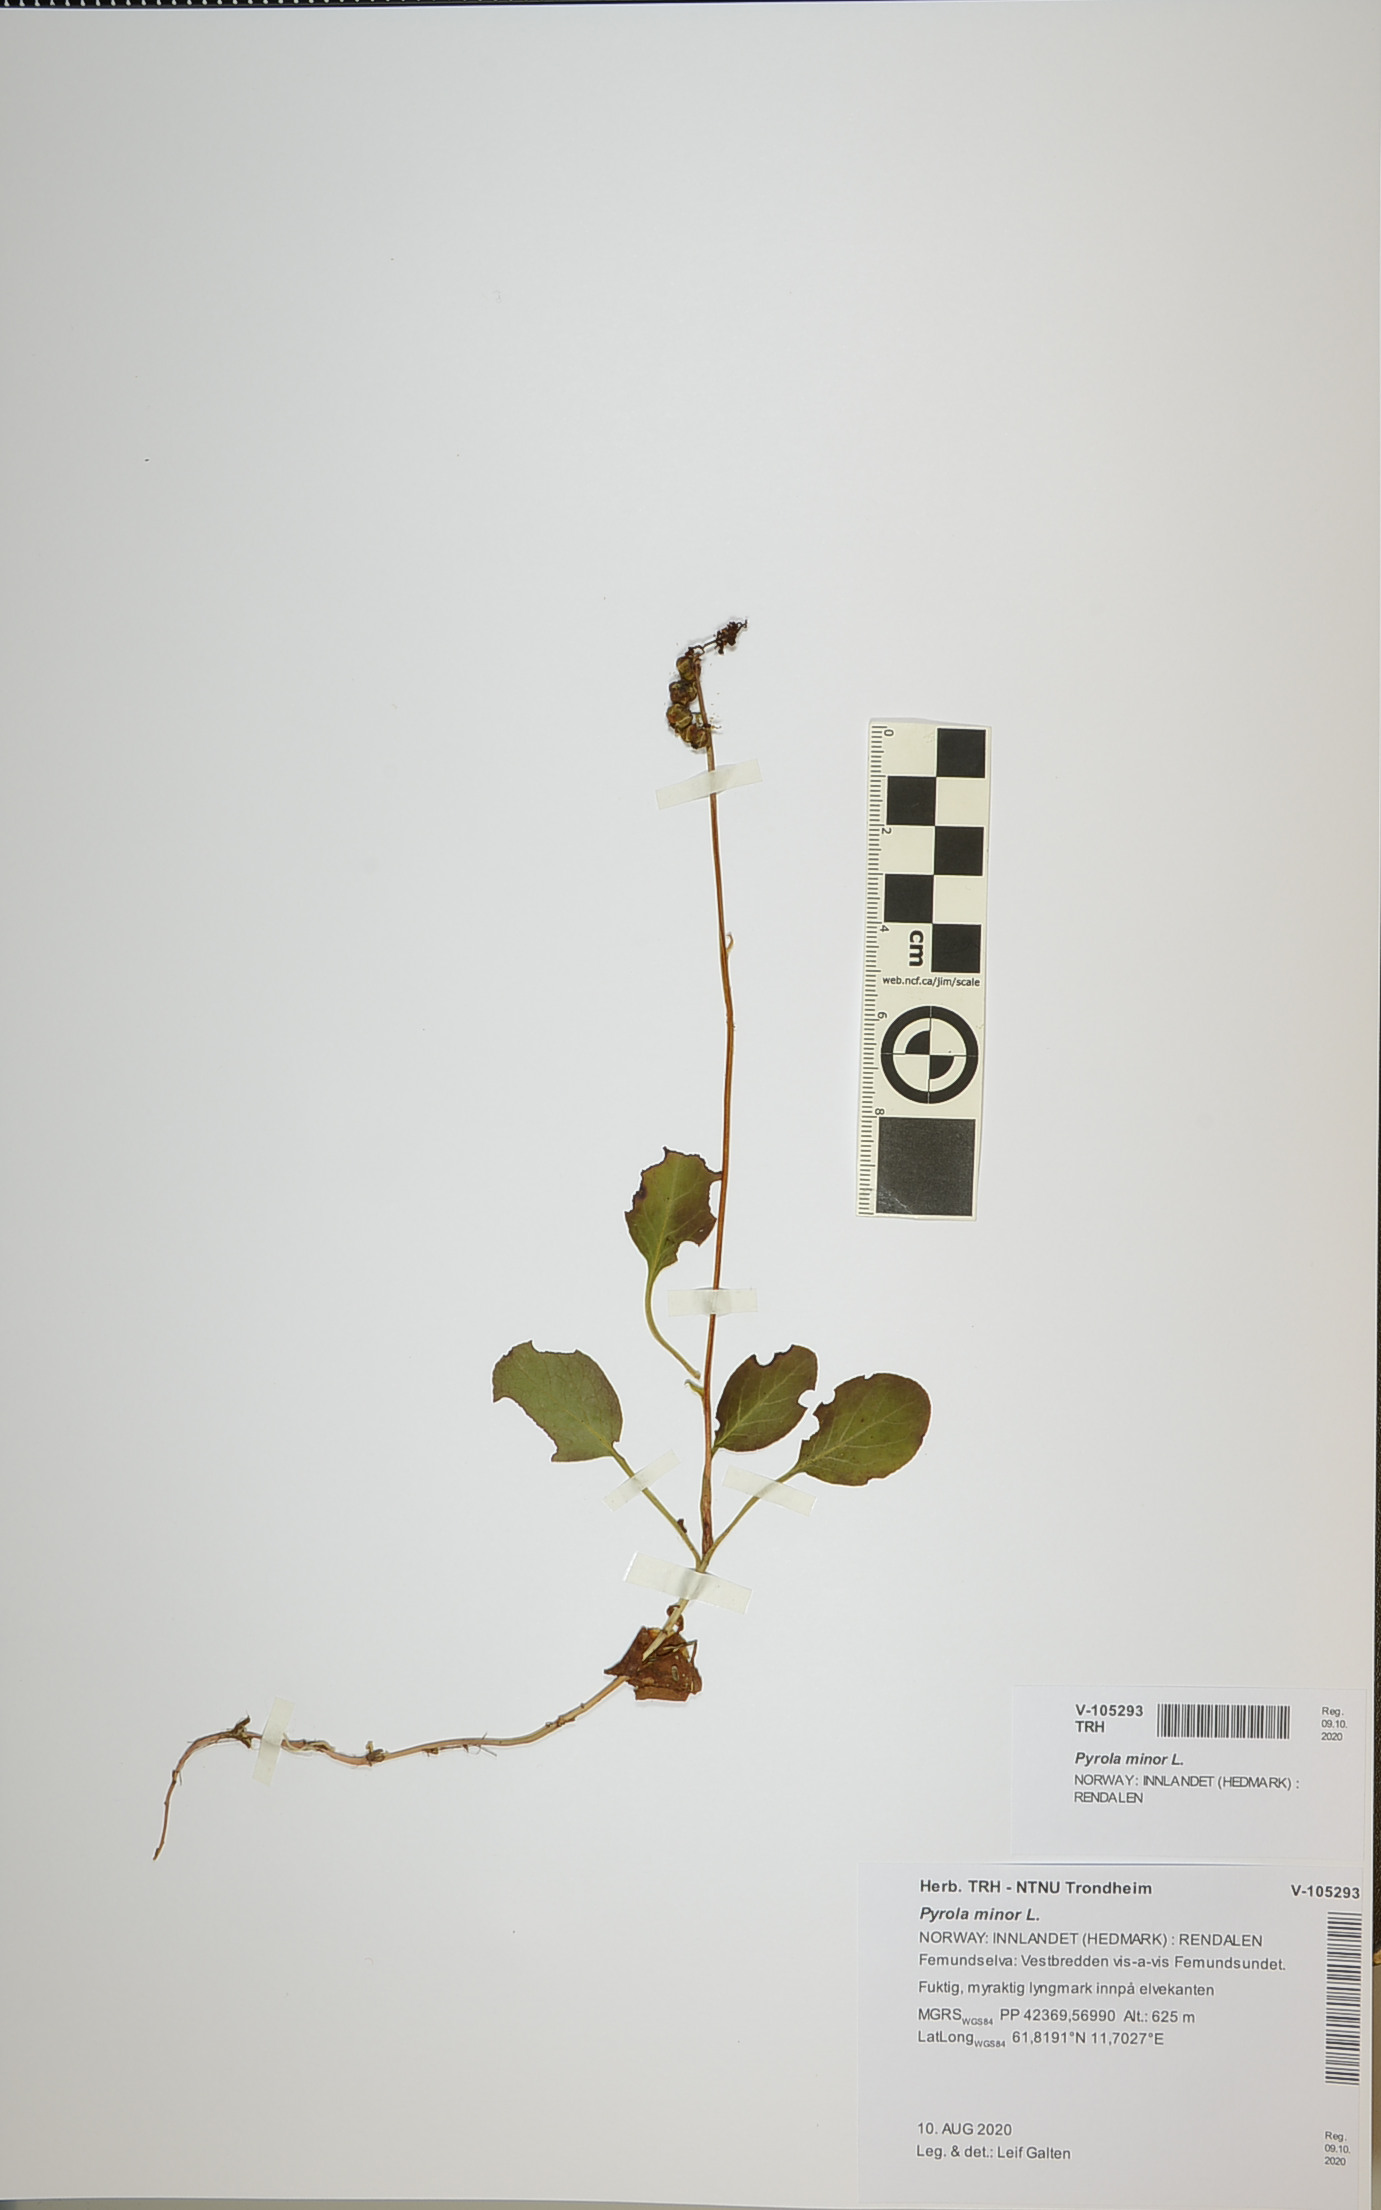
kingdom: Plantae
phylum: Tracheophyta
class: Magnoliopsida
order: Ericales
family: Ericaceae
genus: Pyrola
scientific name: Pyrola minor
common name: Common wintergreen
